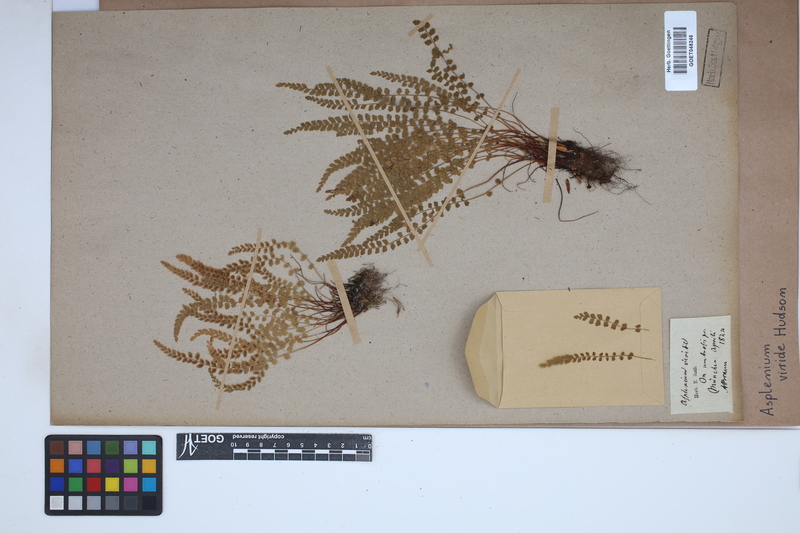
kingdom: Plantae
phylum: Tracheophyta
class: Polypodiopsida
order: Polypodiales
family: Aspleniaceae
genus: Asplenium
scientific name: Asplenium viride
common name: Green spleenwort
